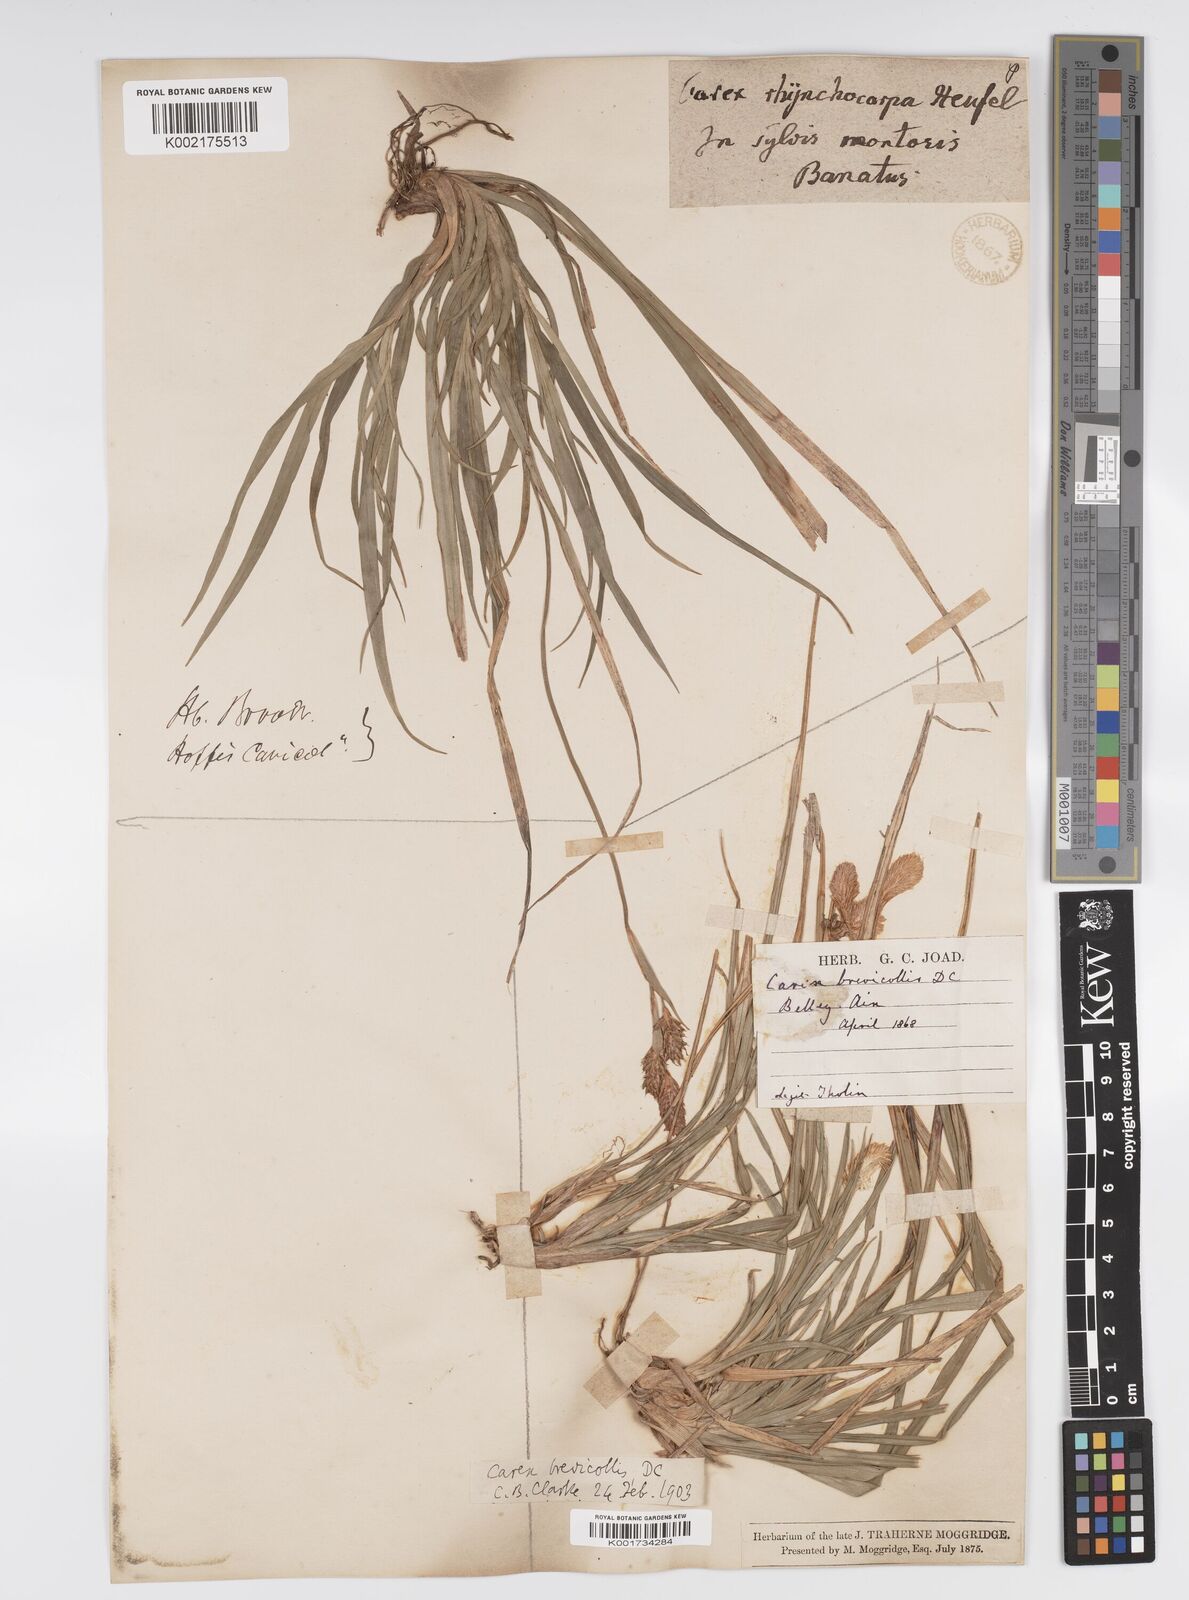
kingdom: Plantae
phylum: Tracheophyta
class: Liliopsida
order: Poales
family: Cyperaceae
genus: Carex
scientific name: Carex brevicollis
